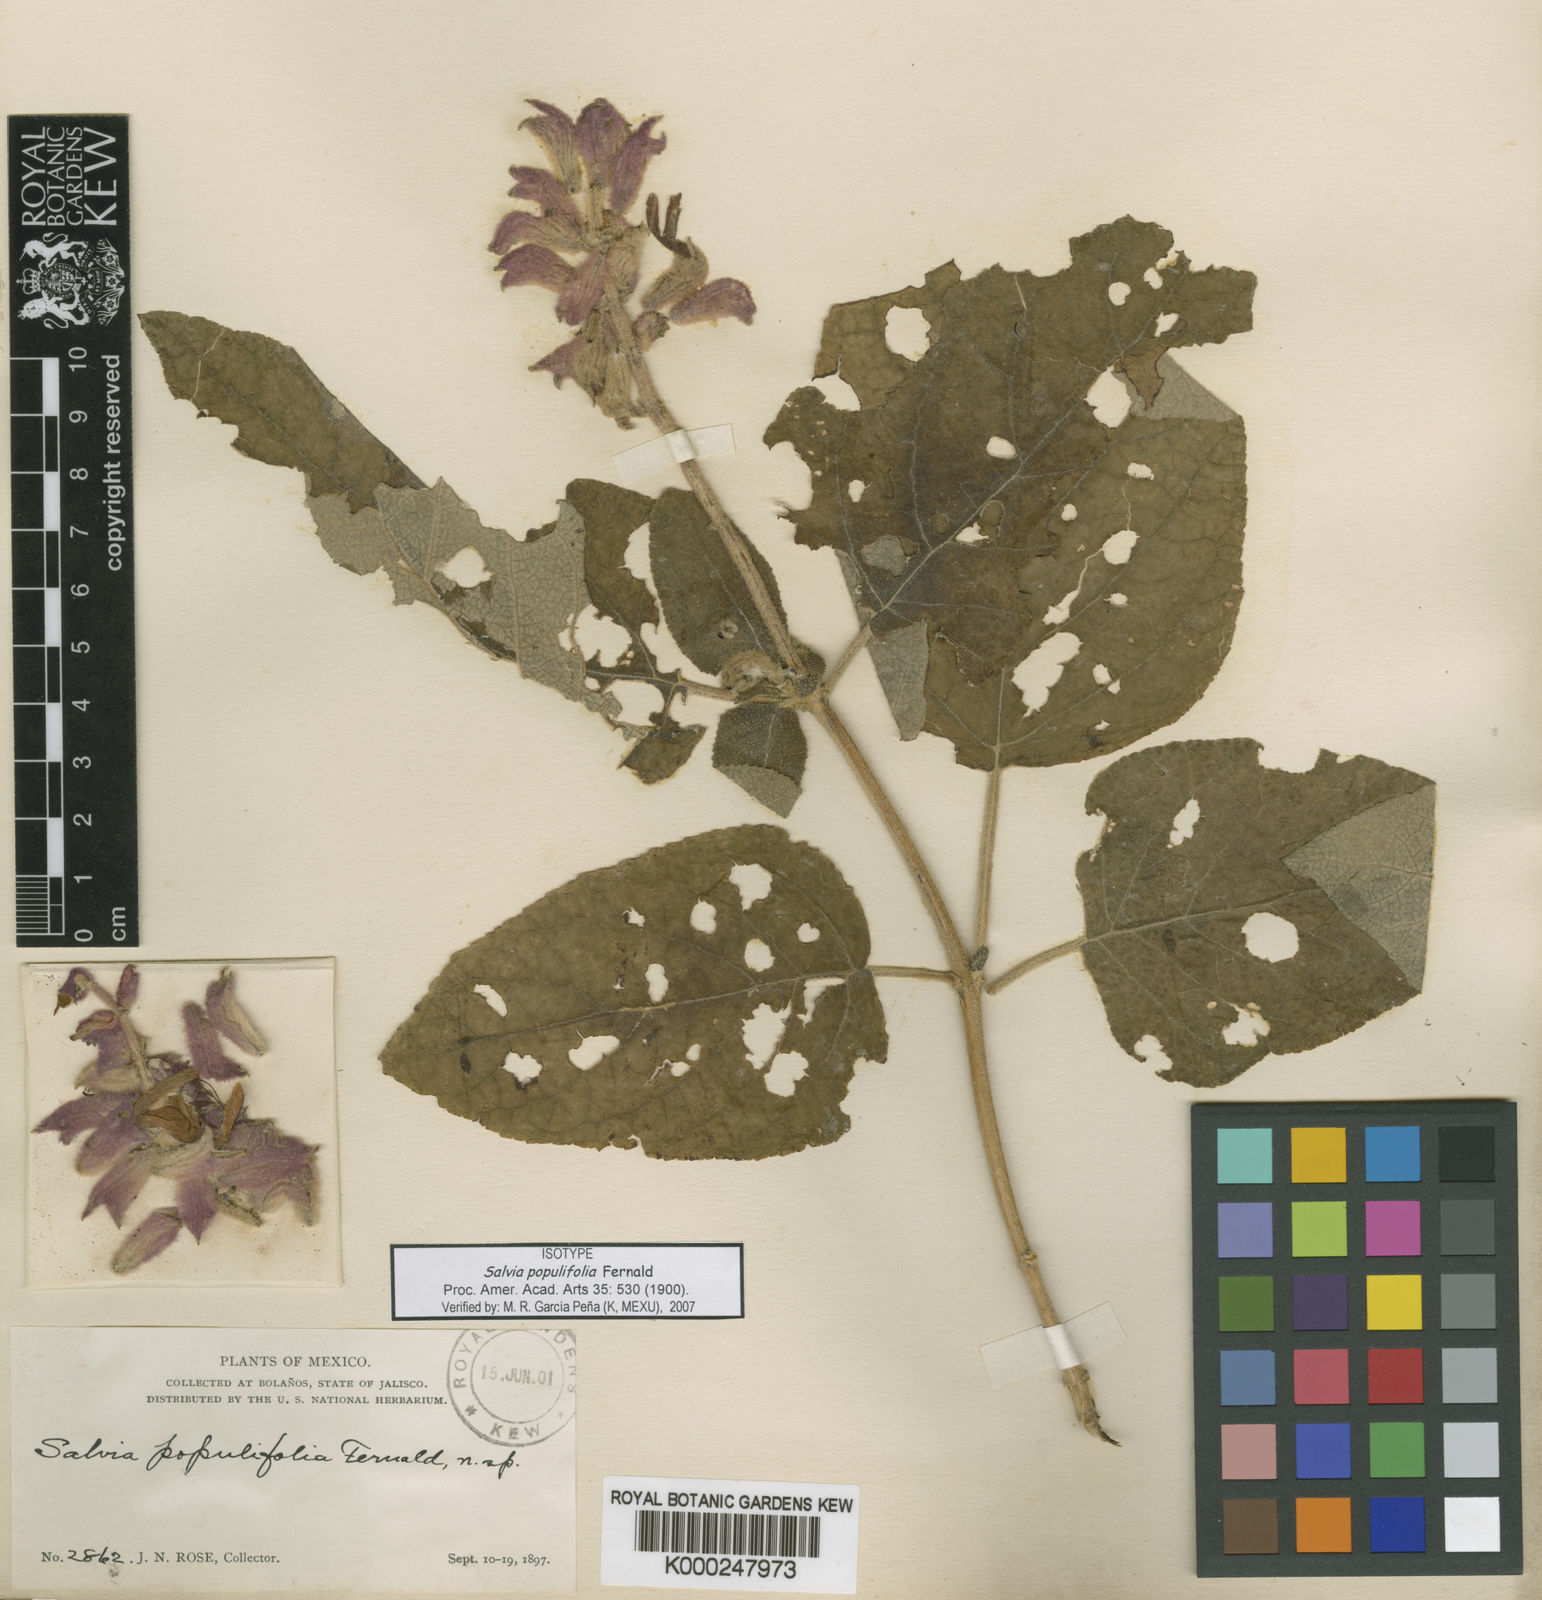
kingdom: Plantae
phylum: Tracheophyta
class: Magnoliopsida
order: Lamiales
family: Lamiaceae
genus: Salvia
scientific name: Salvia lasiantha
